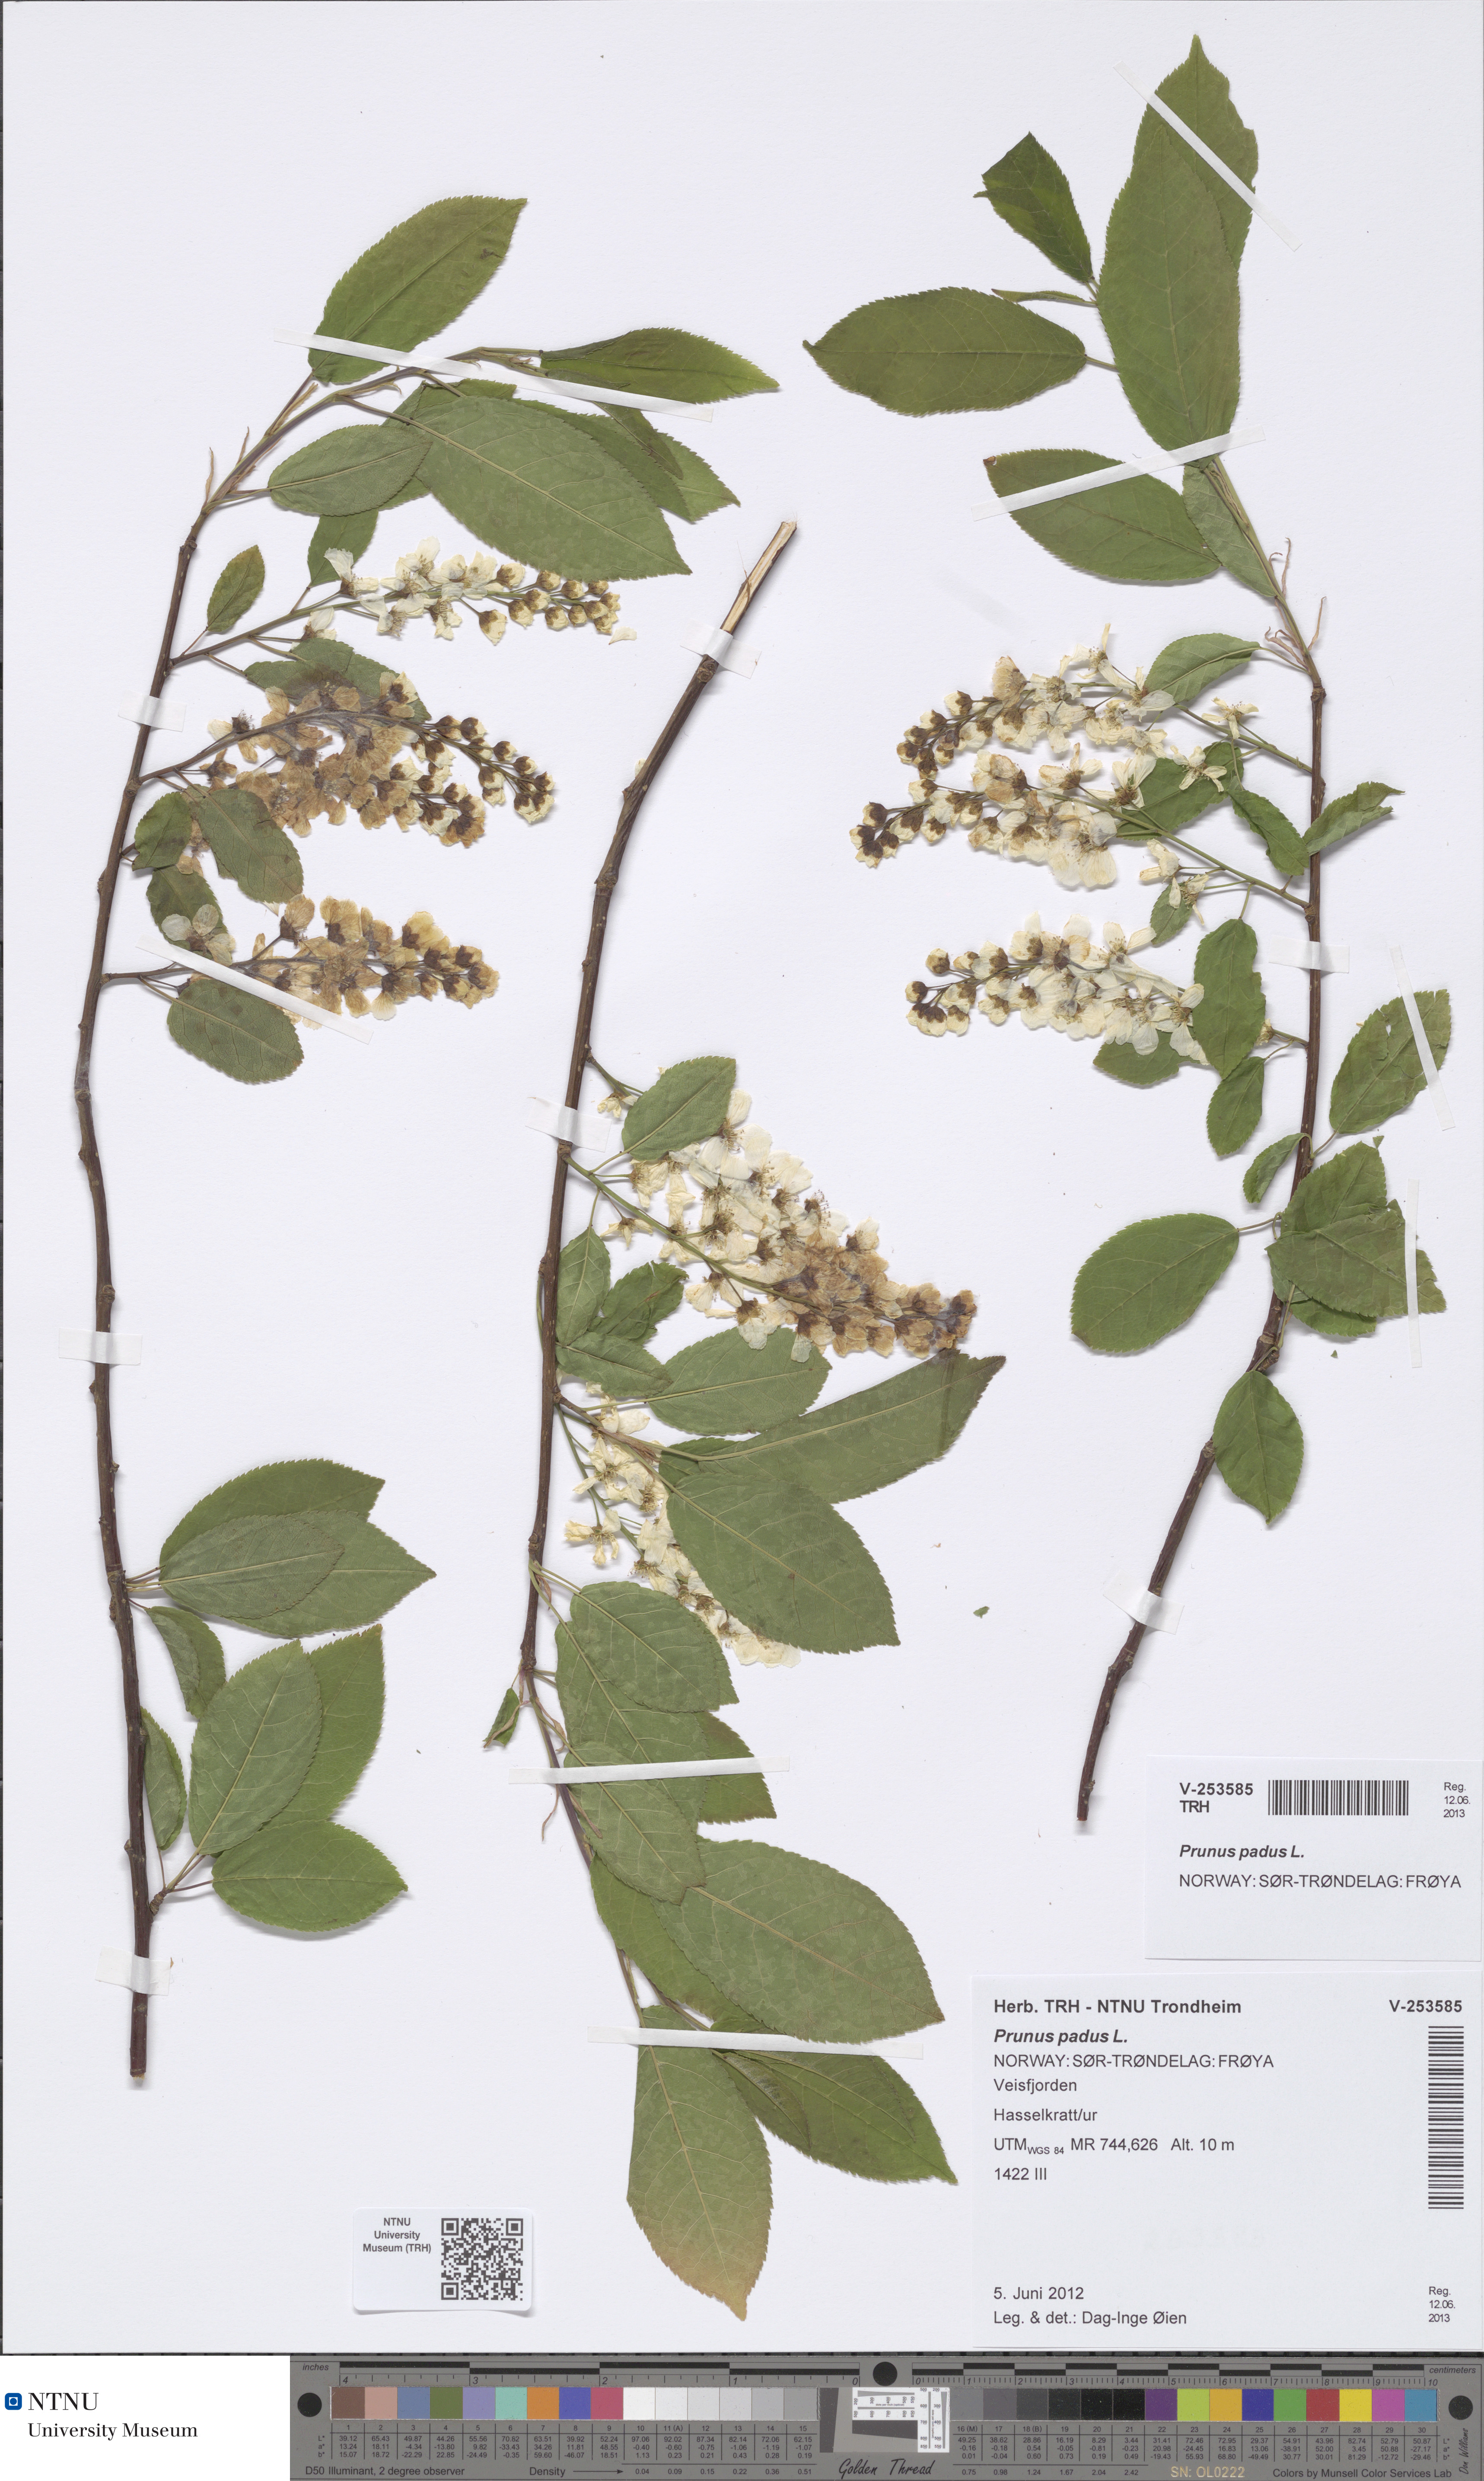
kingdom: Plantae
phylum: Tracheophyta
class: Magnoliopsida
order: Rosales
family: Rosaceae
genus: Prunus
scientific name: Prunus padus
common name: Bird cherry
